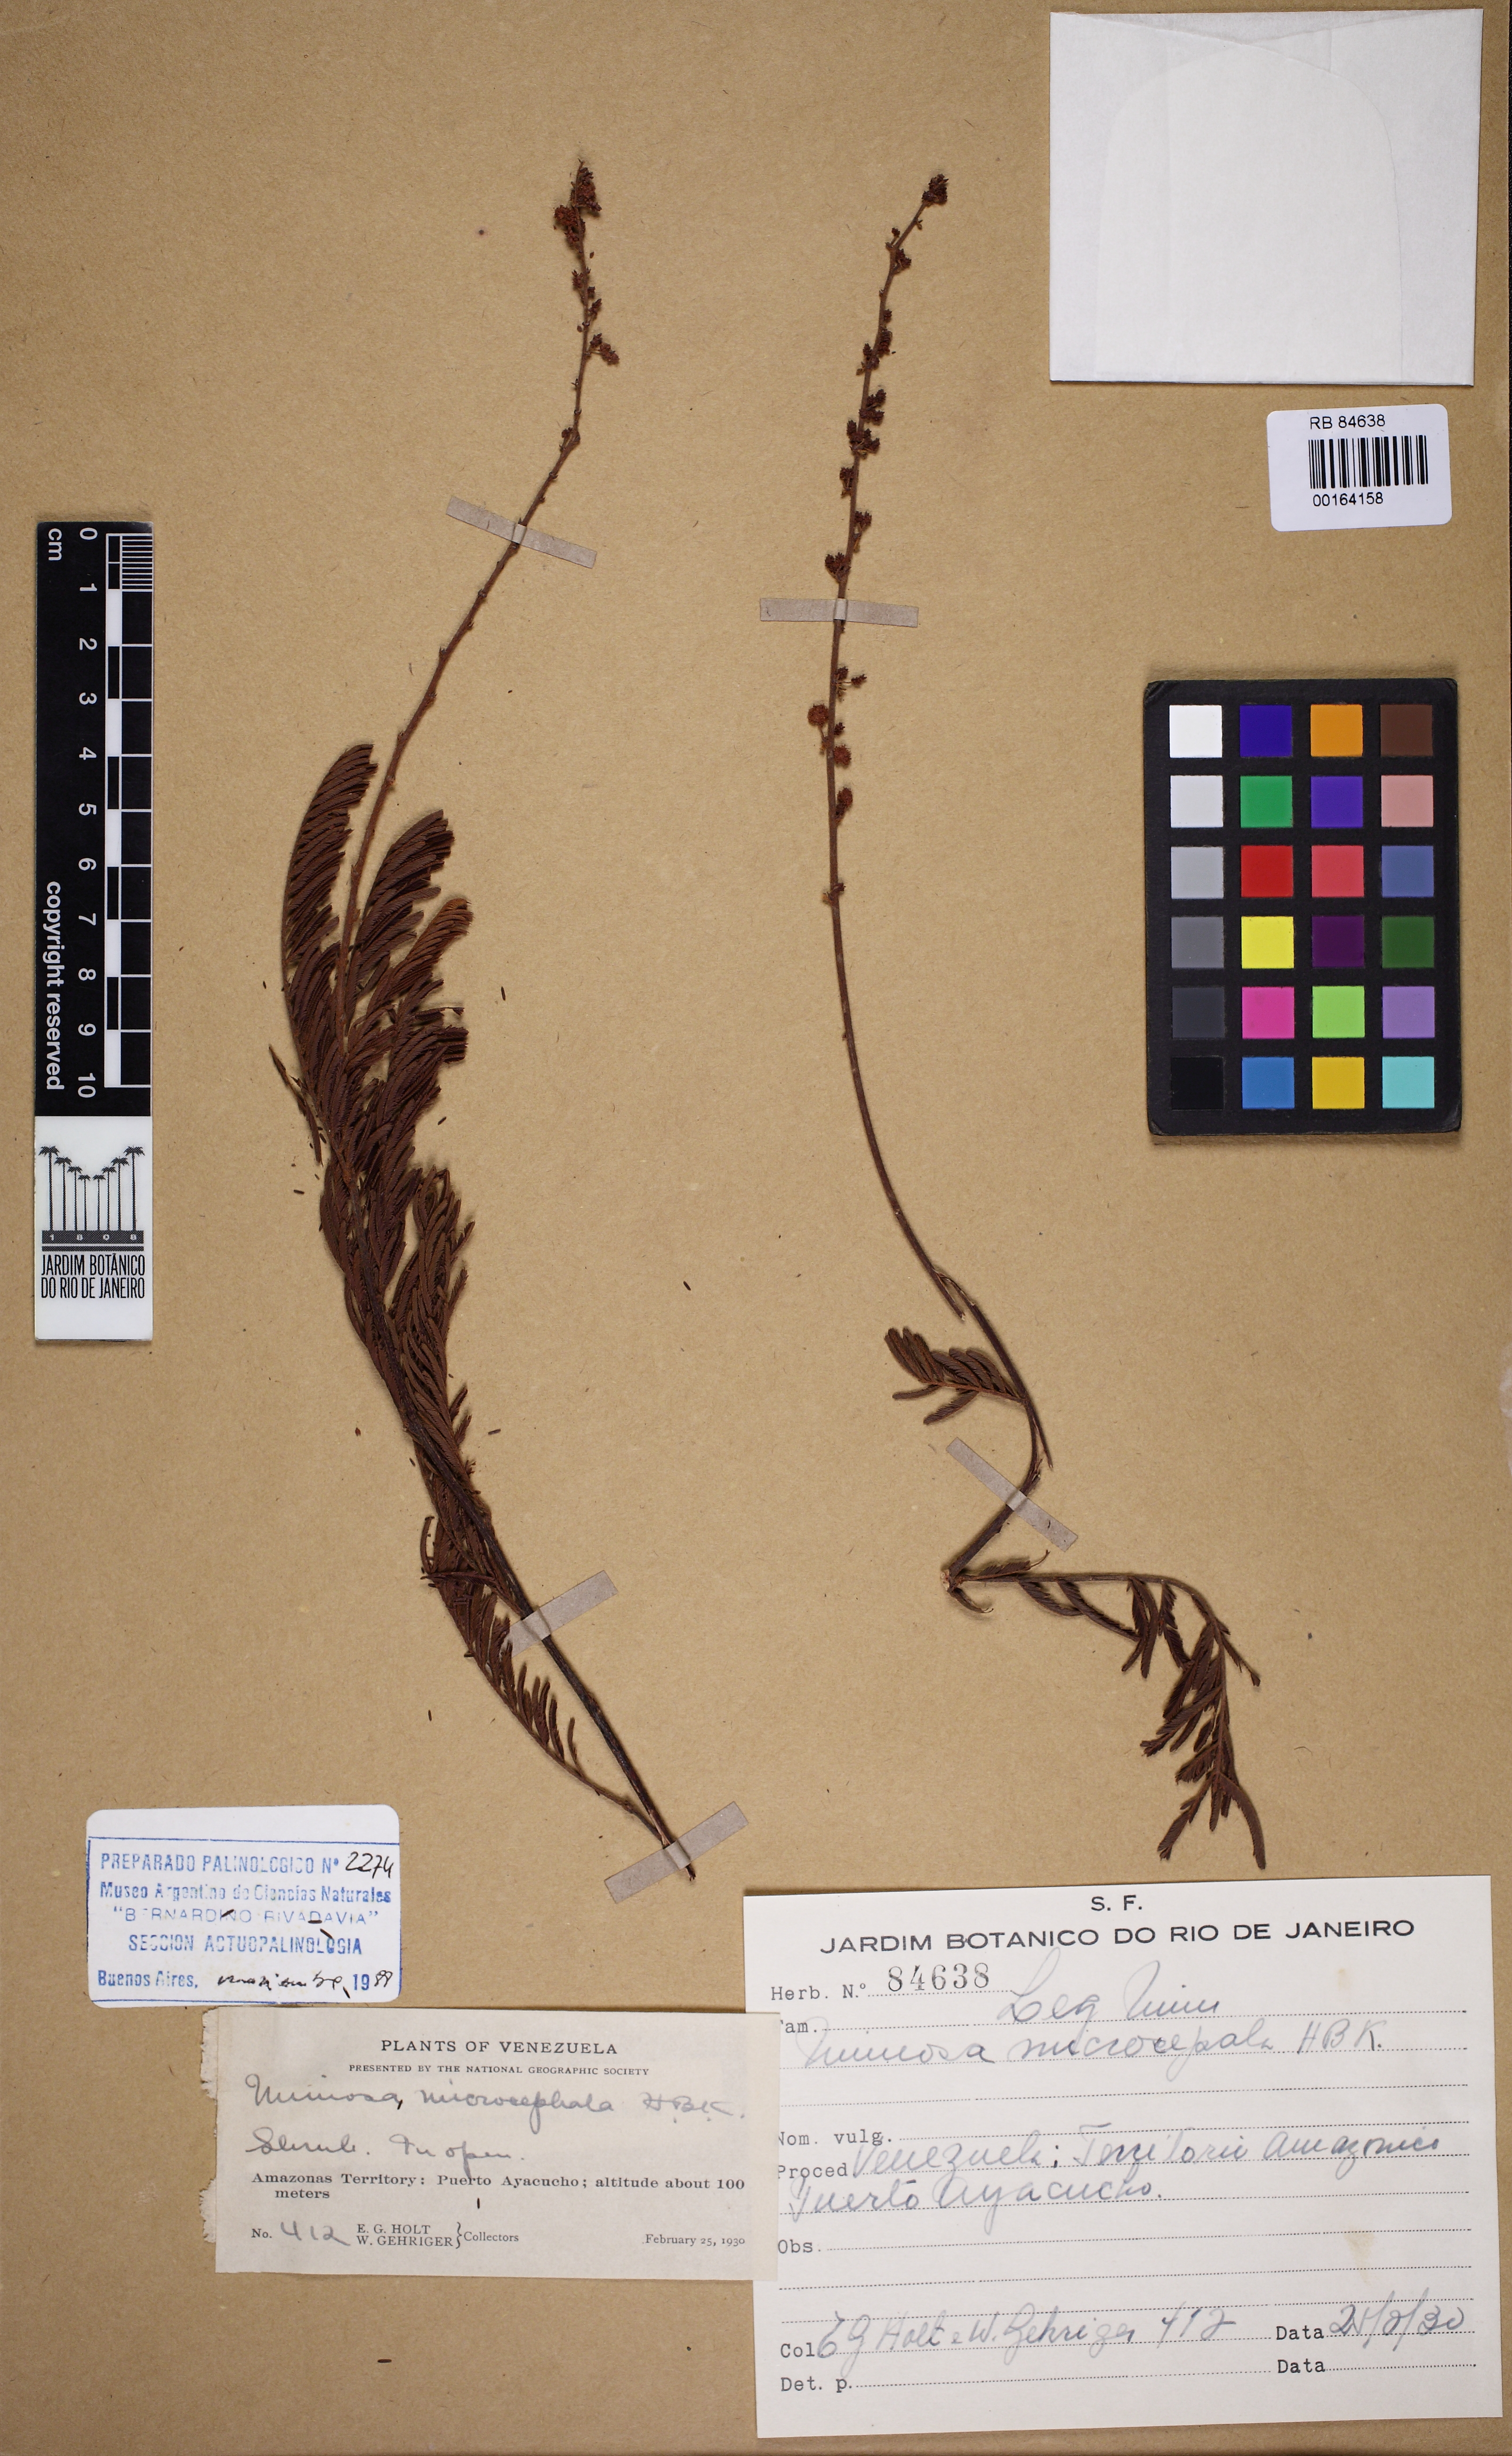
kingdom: Plantae
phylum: Tracheophyta
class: Magnoliopsida
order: Fabales
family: Fabaceae
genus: Mimosa
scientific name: Mimosa rufescens
